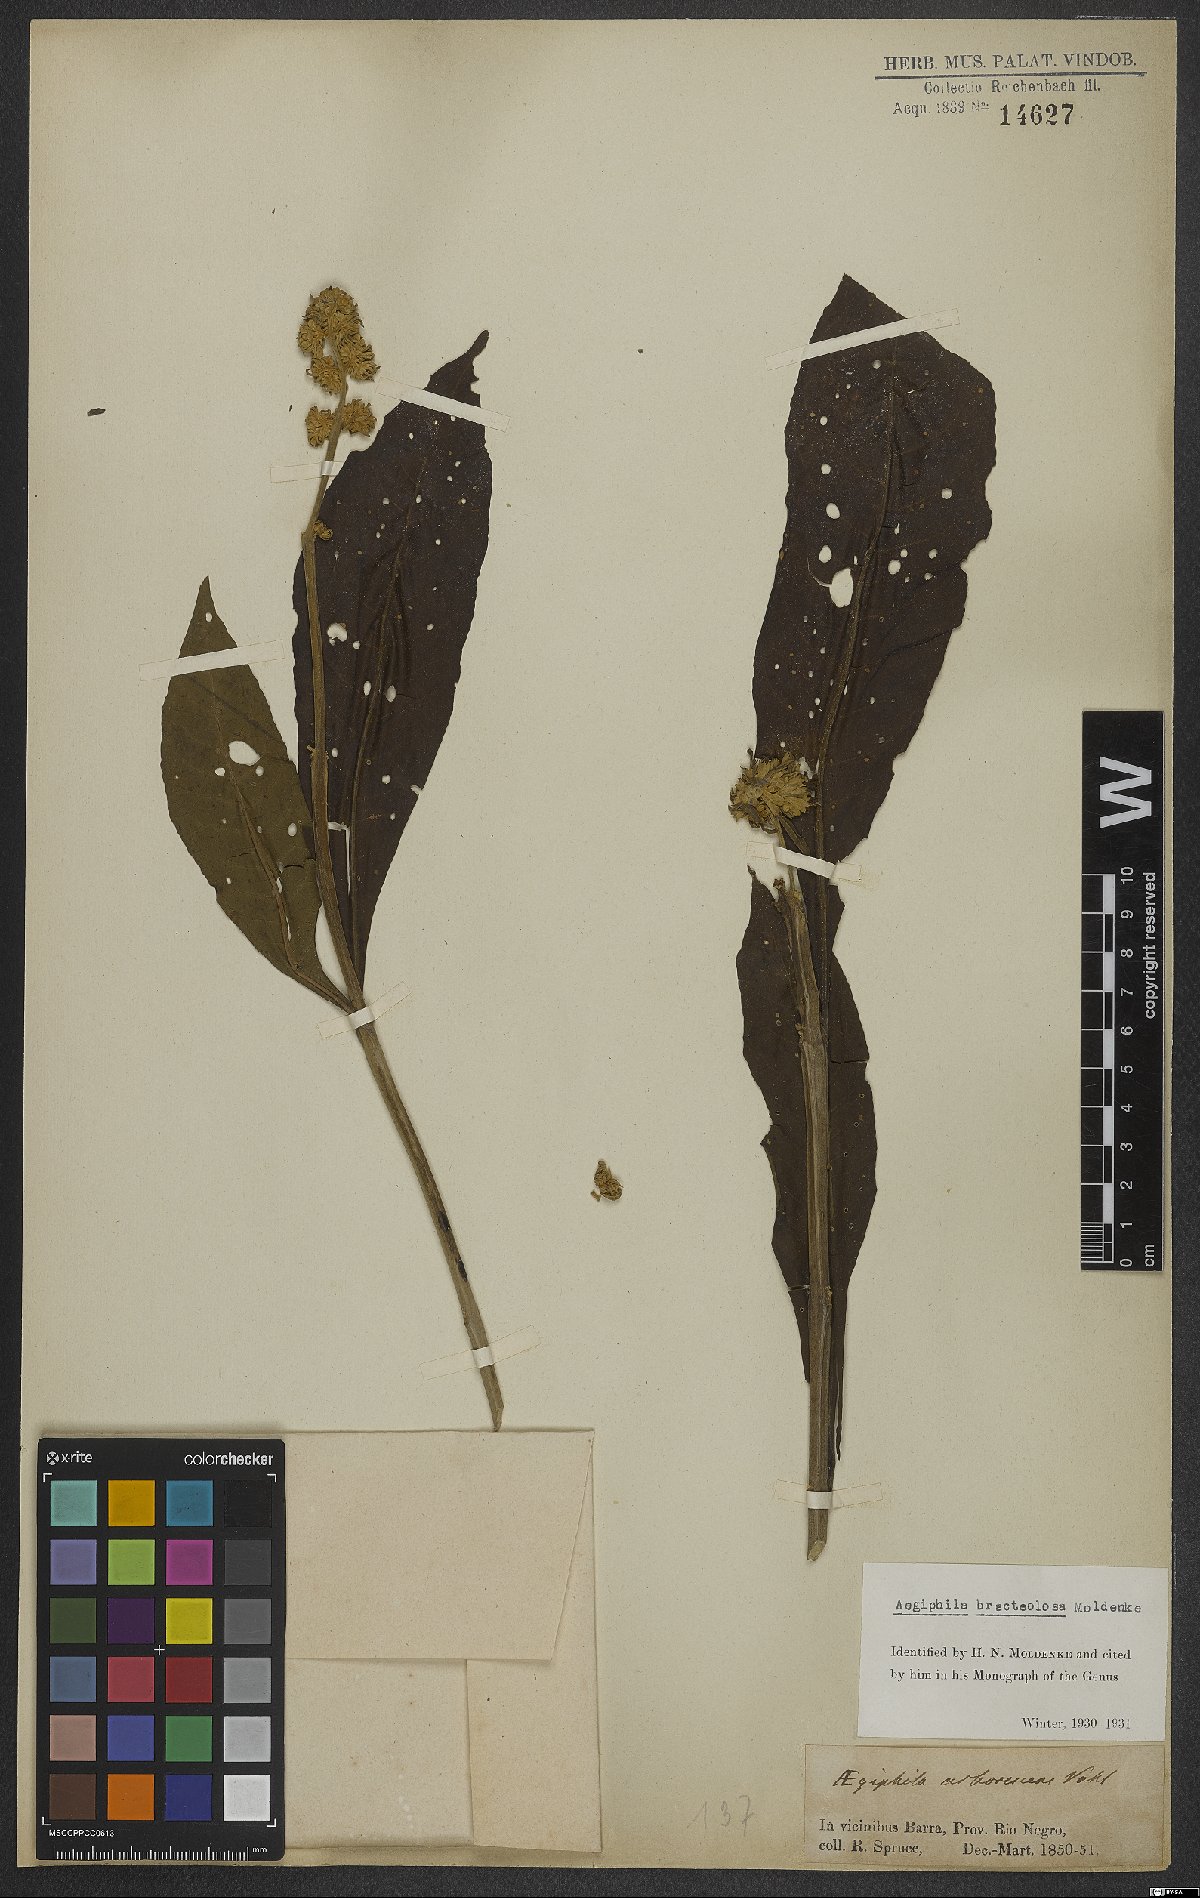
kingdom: Plantae
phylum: Tracheophyta
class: Magnoliopsida
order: Lamiales
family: Lamiaceae
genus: Aegiphila
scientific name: Aegiphila bracteolosa
